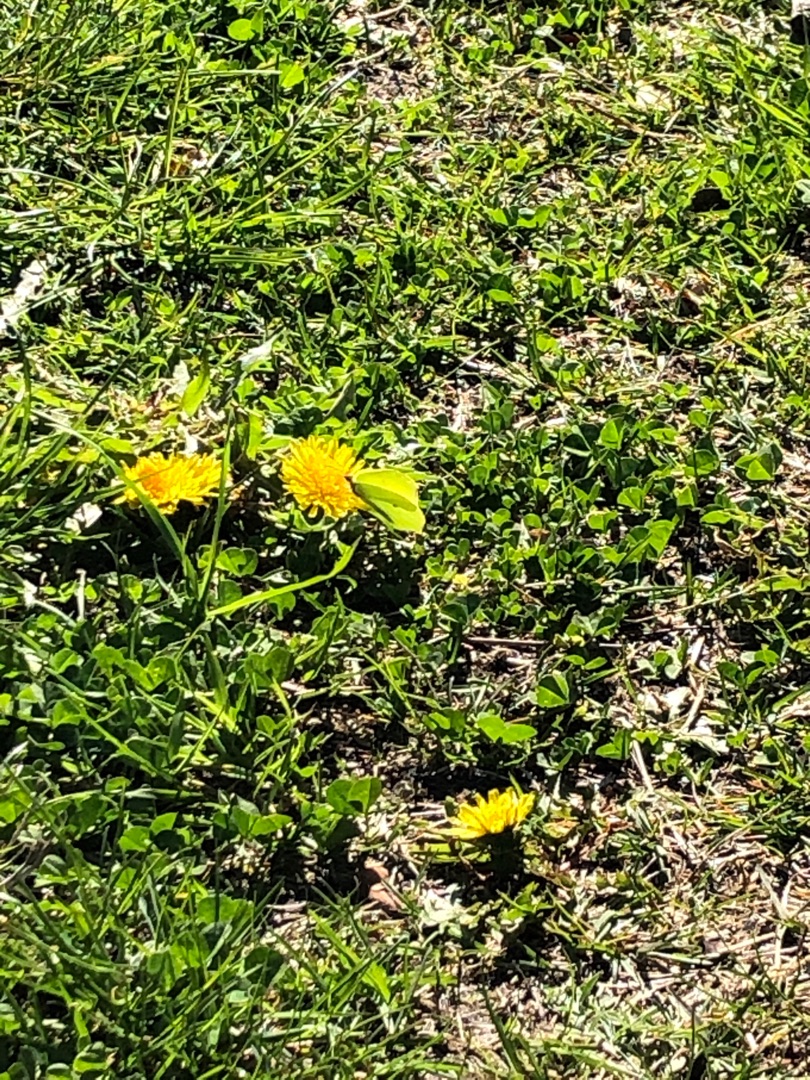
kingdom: Animalia
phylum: Arthropoda
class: Insecta
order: Lepidoptera
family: Pieridae
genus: Gonepteryx
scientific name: Gonepteryx rhamni
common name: Citronsommerfugl
